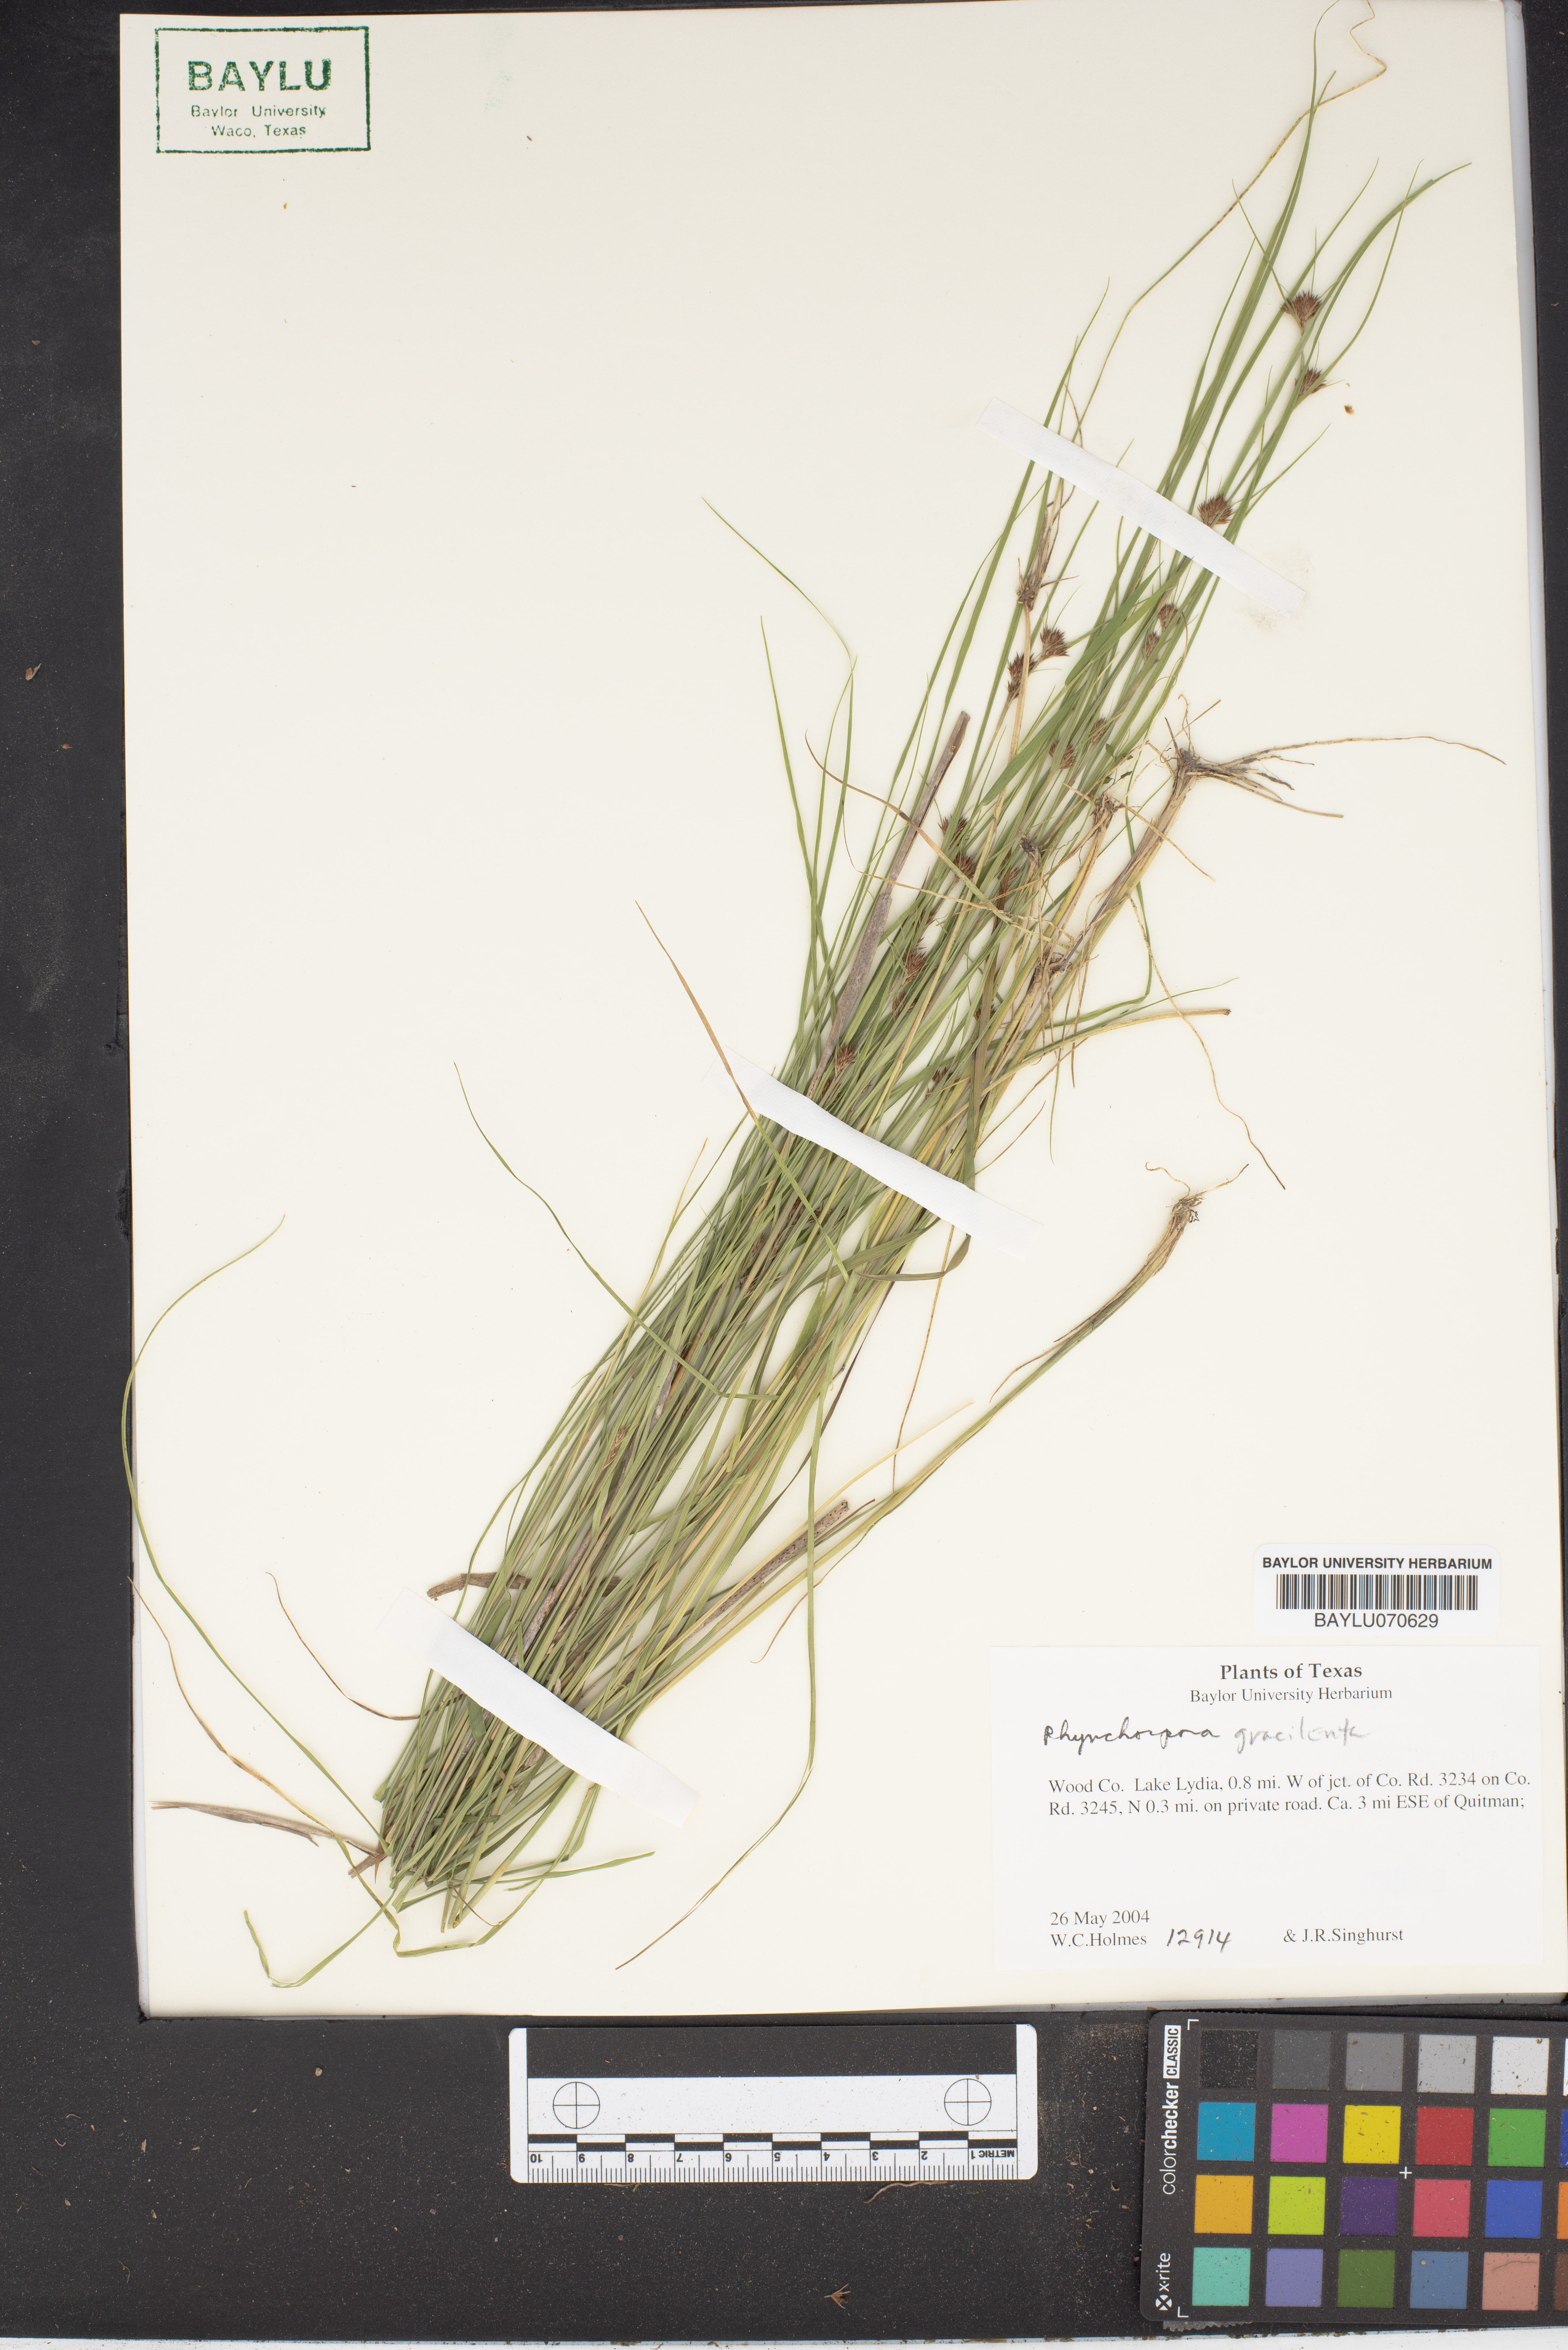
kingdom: Plantae
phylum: Tracheophyta
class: Liliopsida
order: Poales
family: Cyperaceae
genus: Rhynchospora
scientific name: Rhynchospora gracilenta
